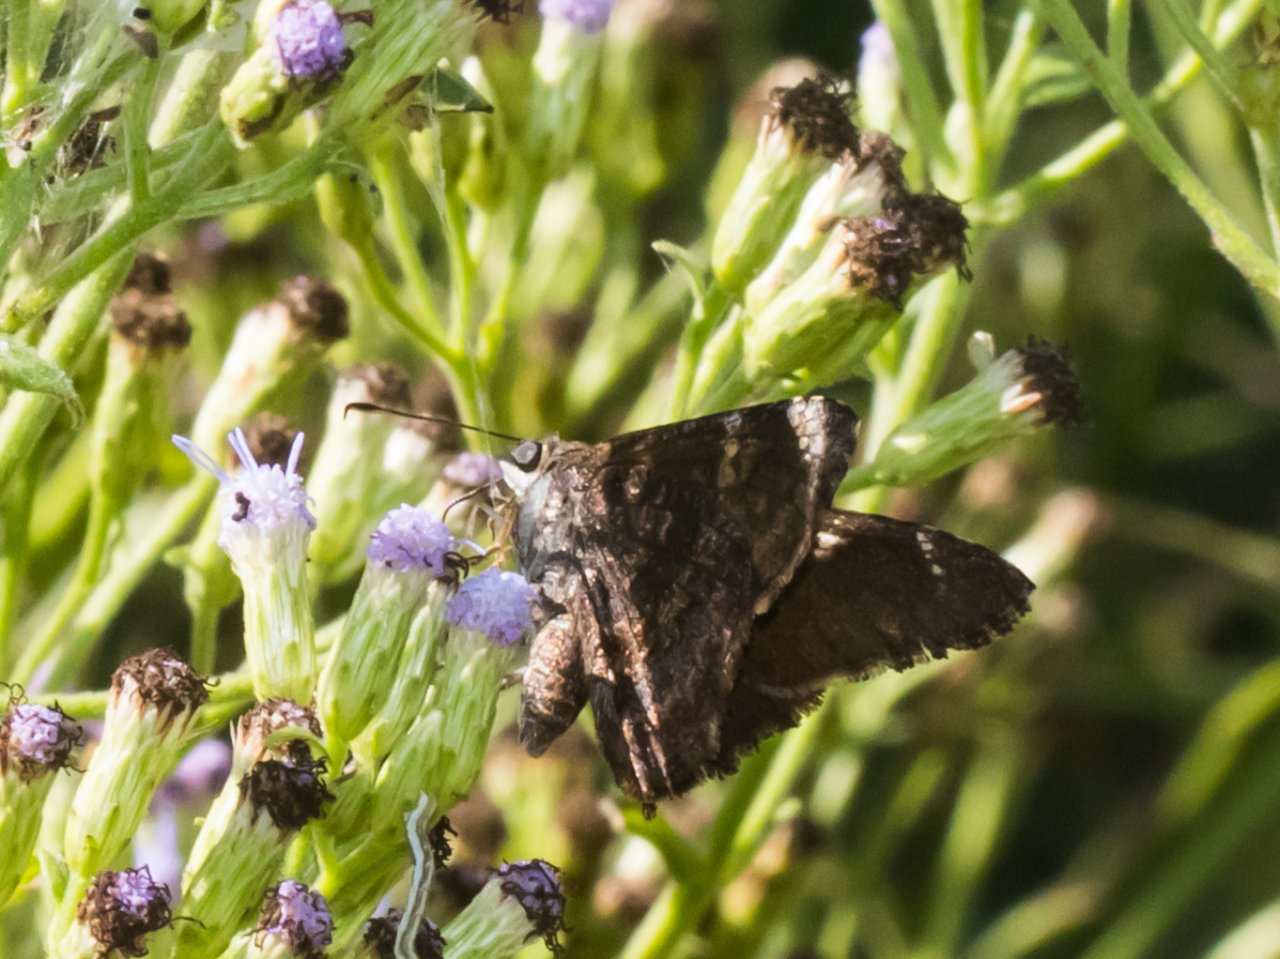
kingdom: Animalia
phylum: Arthropoda
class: Insecta
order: Lepidoptera
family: Hesperiidae
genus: Caicella
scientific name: Caicella calchas
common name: Mimosa Skipper
